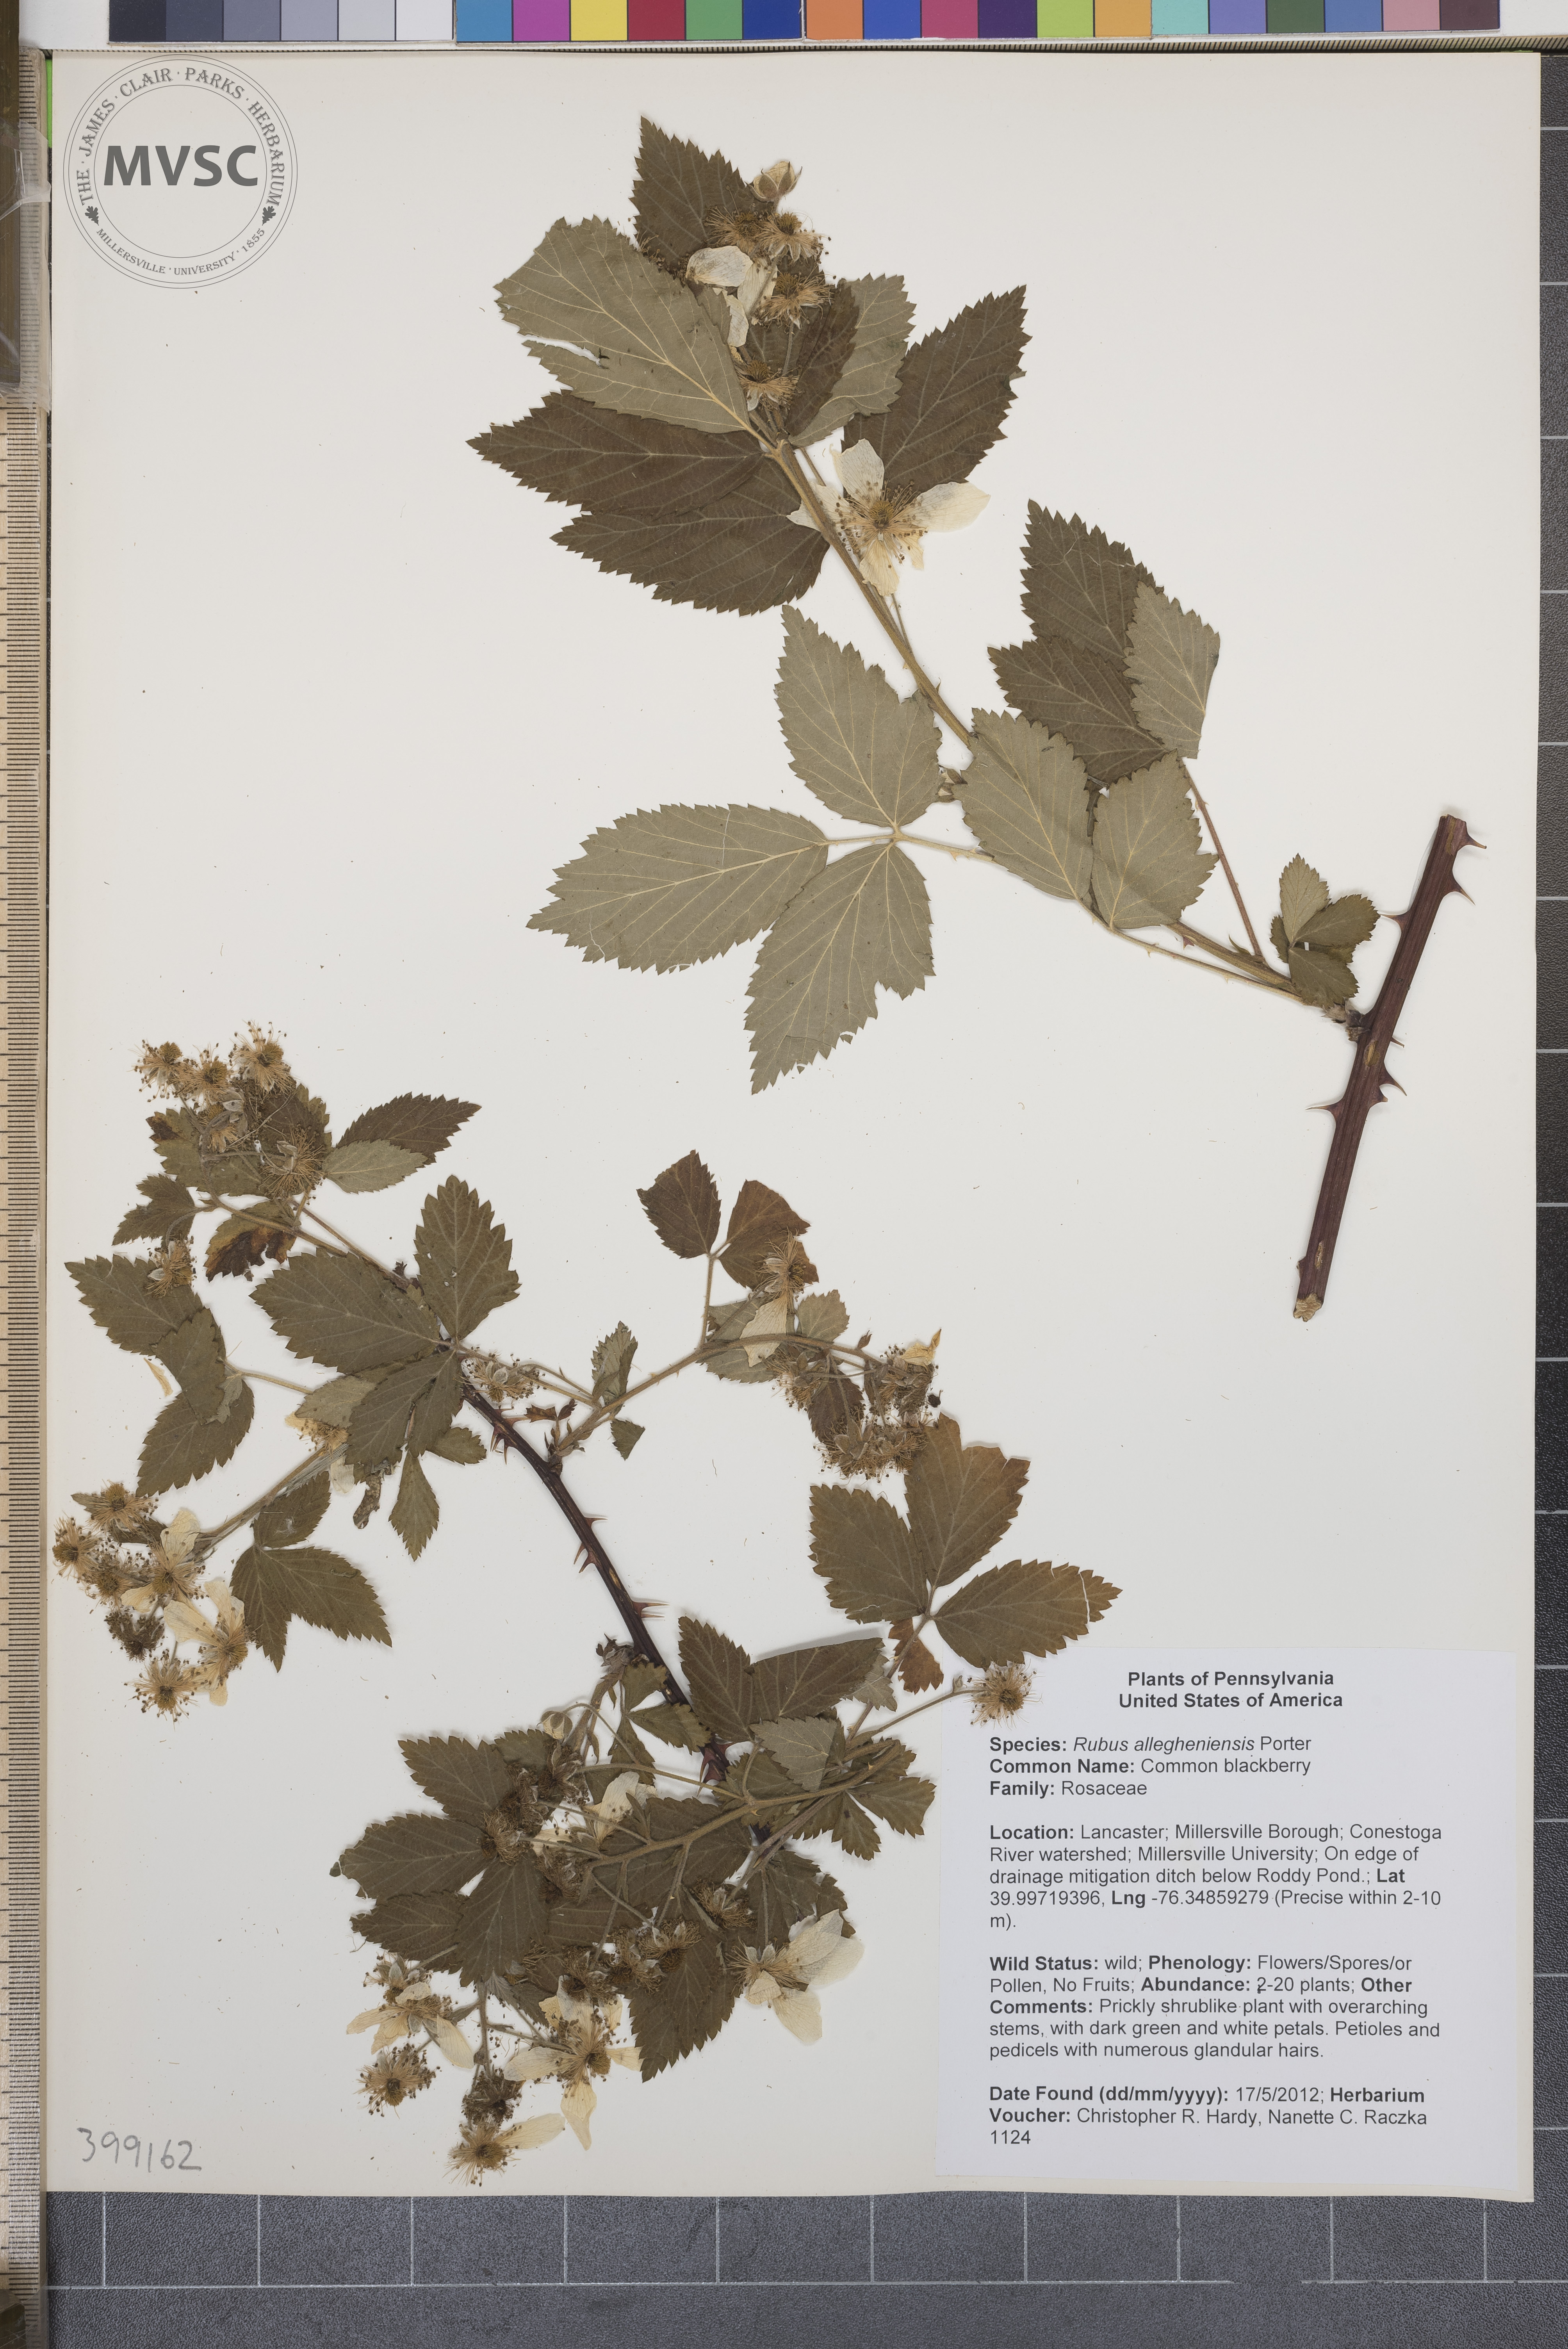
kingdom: Plantae
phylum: Tracheophyta
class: Magnoliopsida
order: Rosales
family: Rosaceae
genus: Rubus
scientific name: Rubus allegheniensis
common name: Common blackberry
